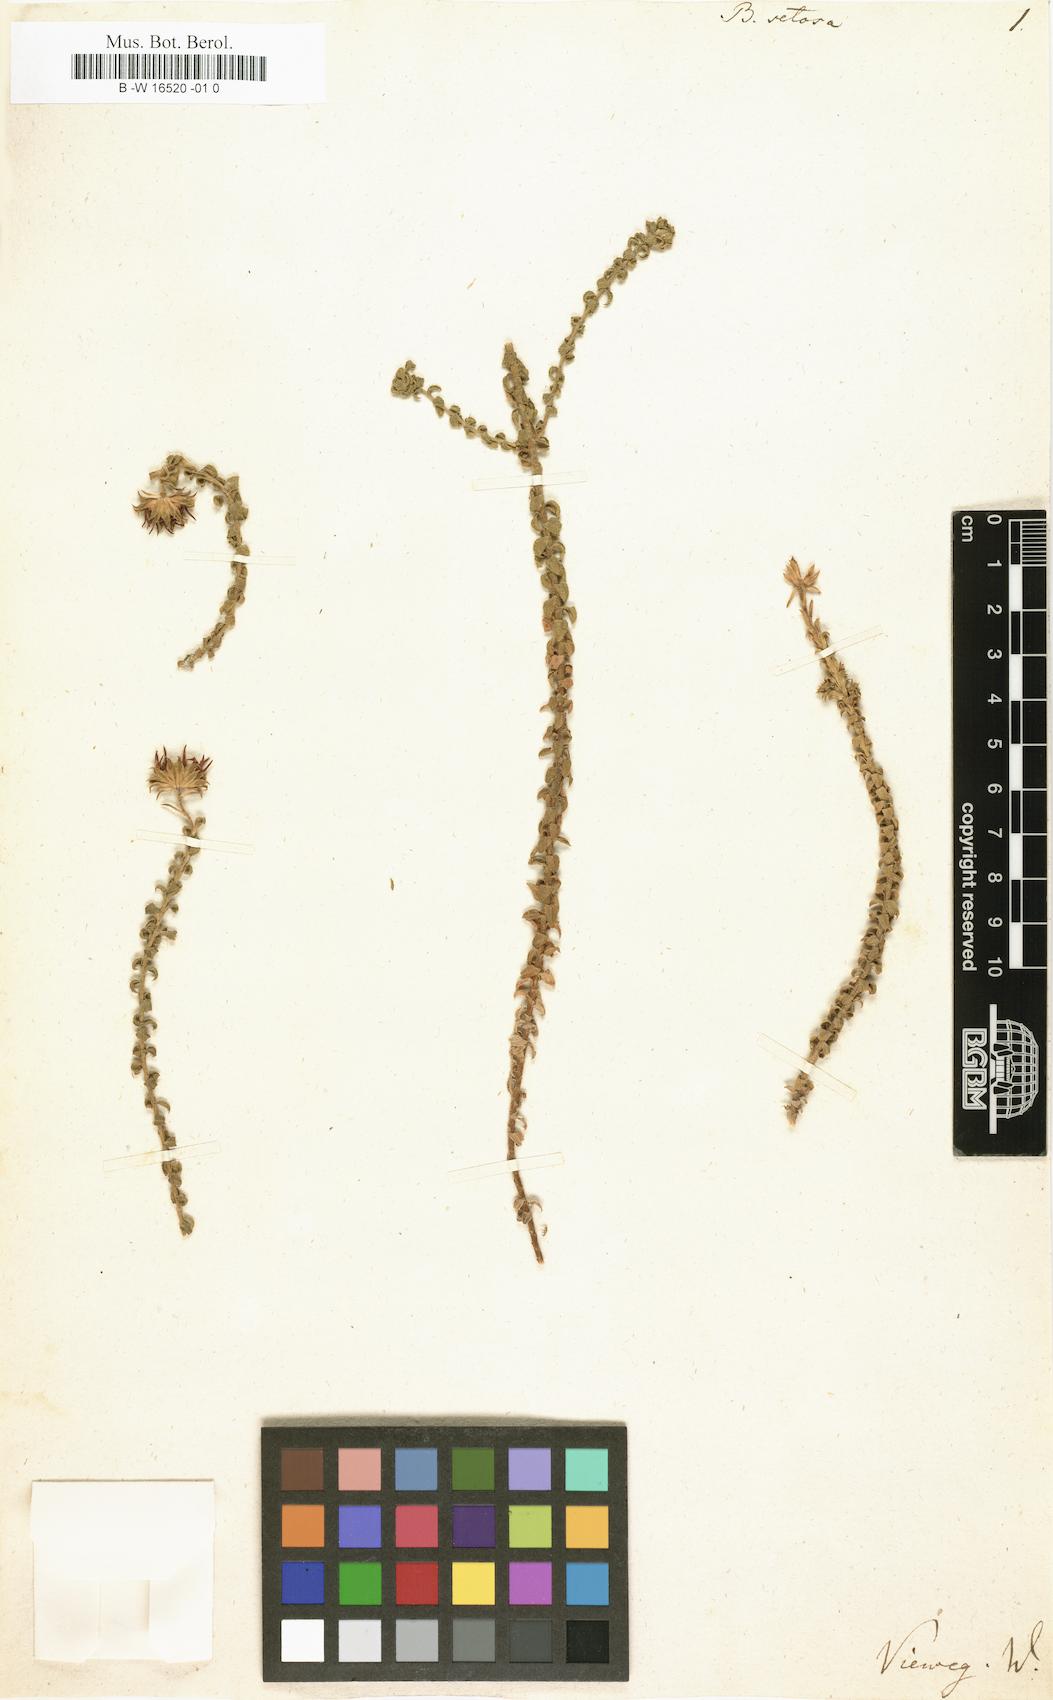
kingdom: Plantae
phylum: Tracheophyta
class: Magnoliopsida
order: Asterales
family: Asteraceae
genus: Cullumia
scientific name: Cullumia setosa
